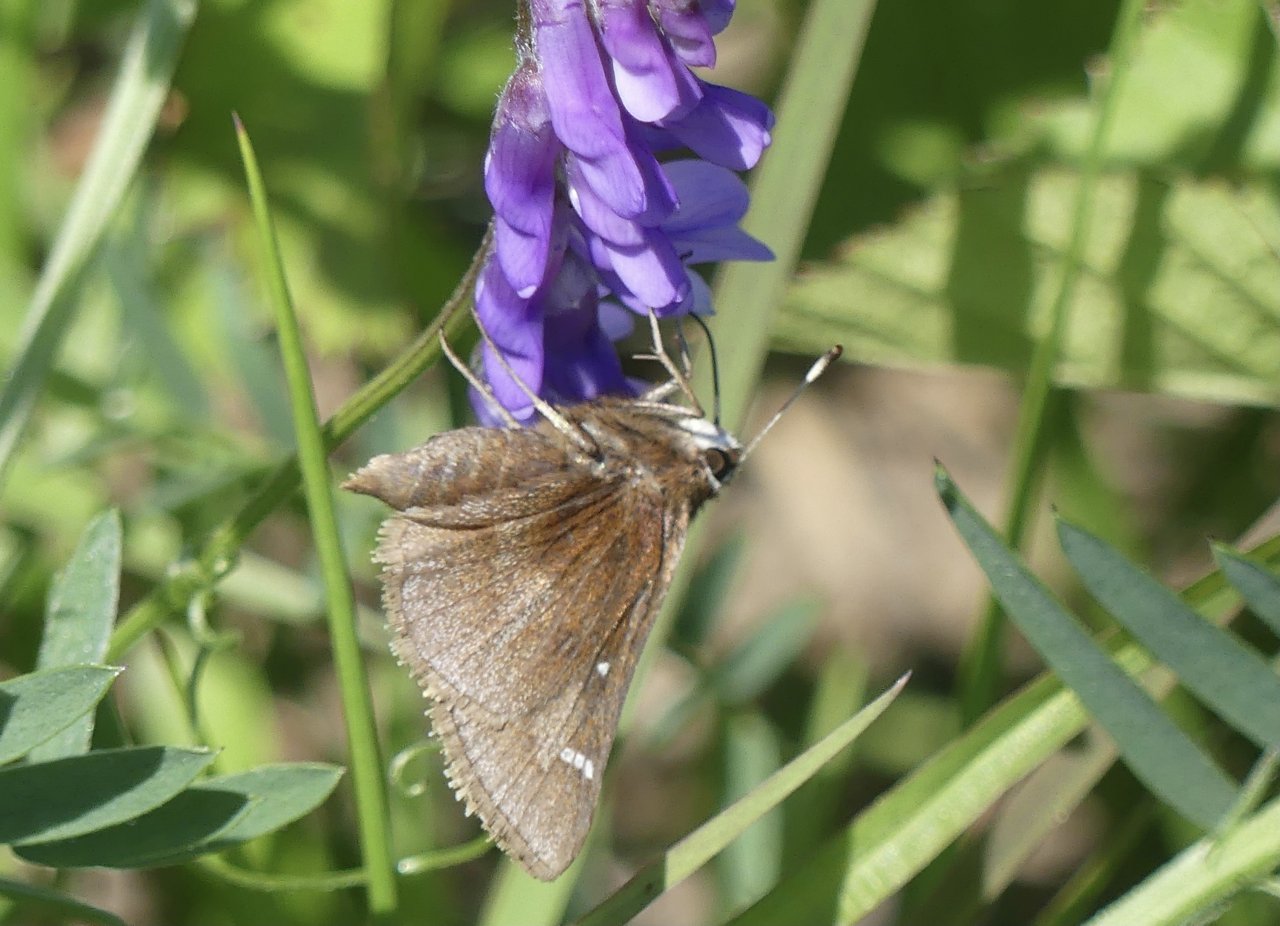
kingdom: Animalia
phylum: Arthropoda
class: Insecta
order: Lepidoptera
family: Hesperiidae
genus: Autochton
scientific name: Autochton
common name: Southern Cloudywing
